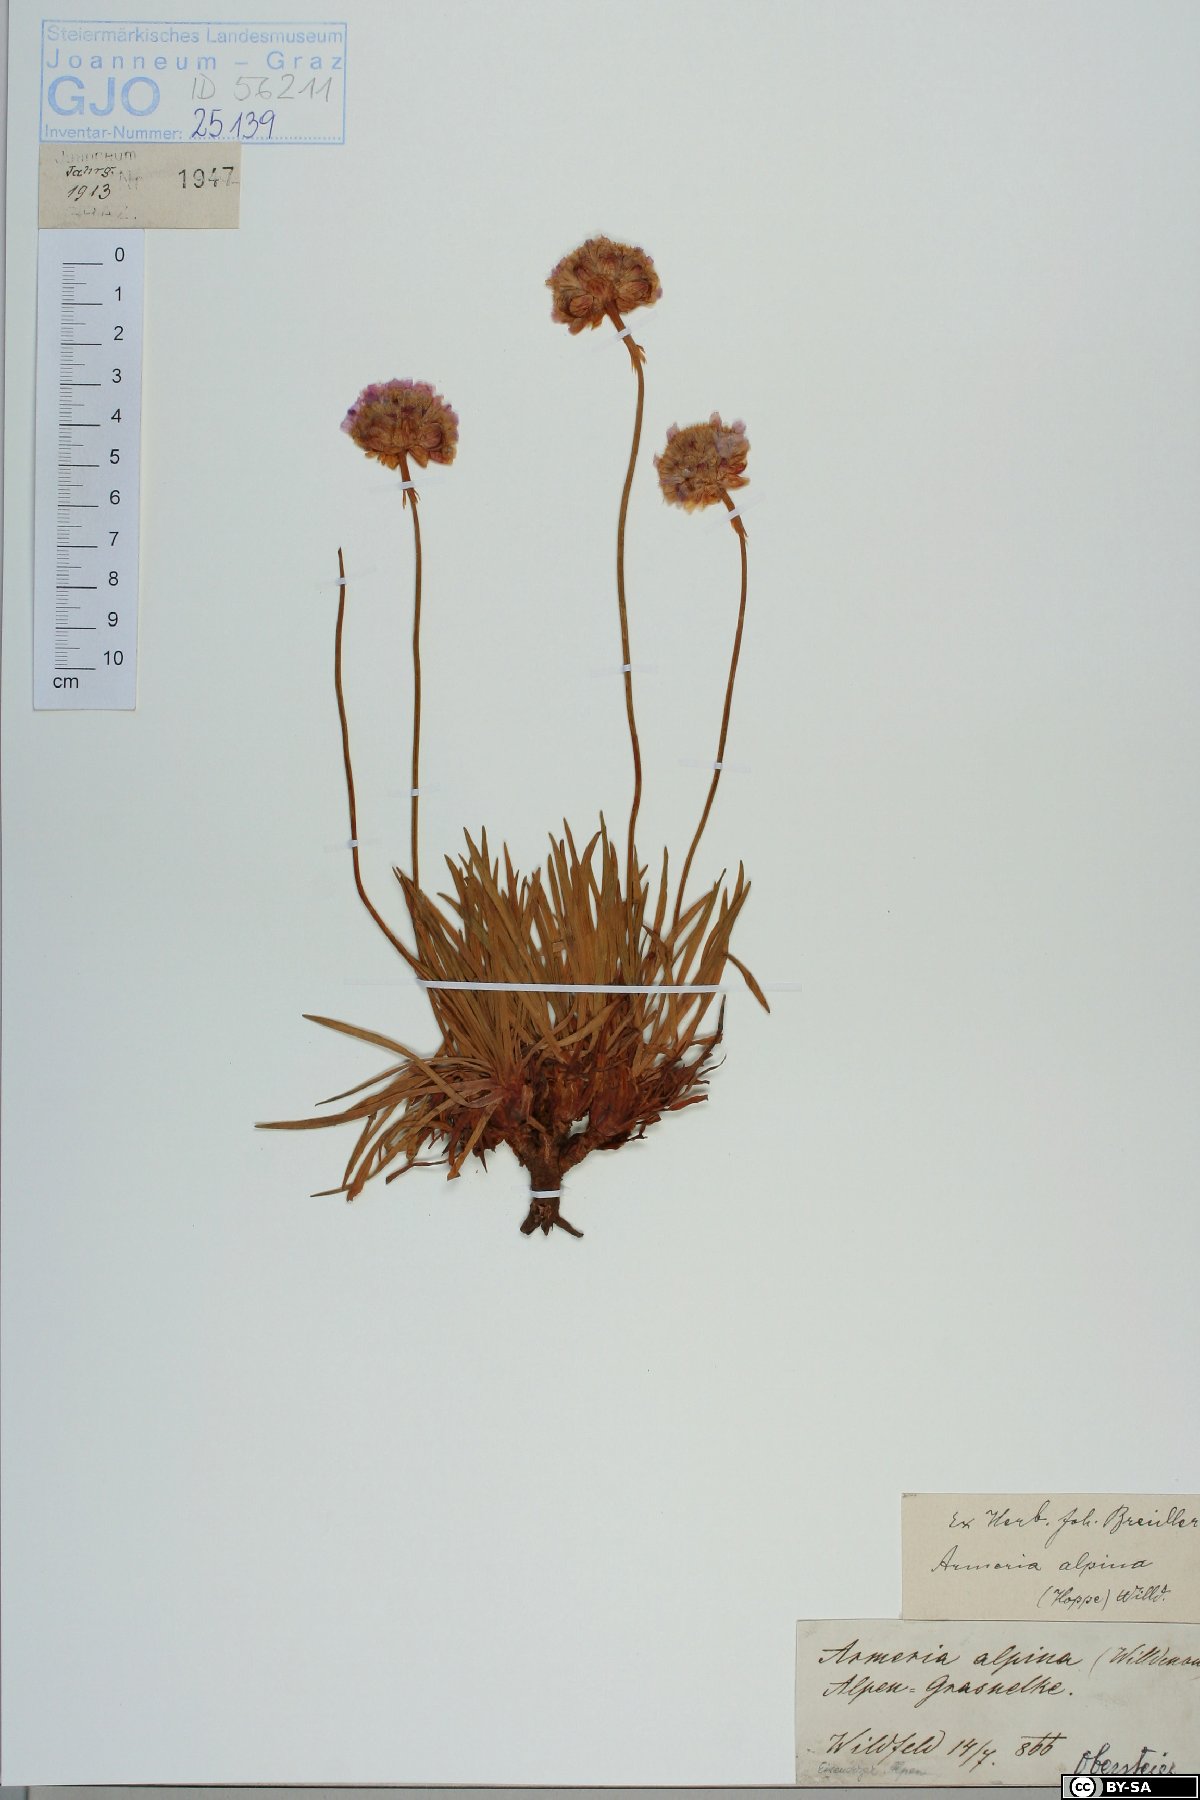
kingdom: Plantae
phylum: Tracheophyta
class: Magnoliopsida
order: Caryophyllales
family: Plumbaginaceae
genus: Armeria
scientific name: Armeria alpina
